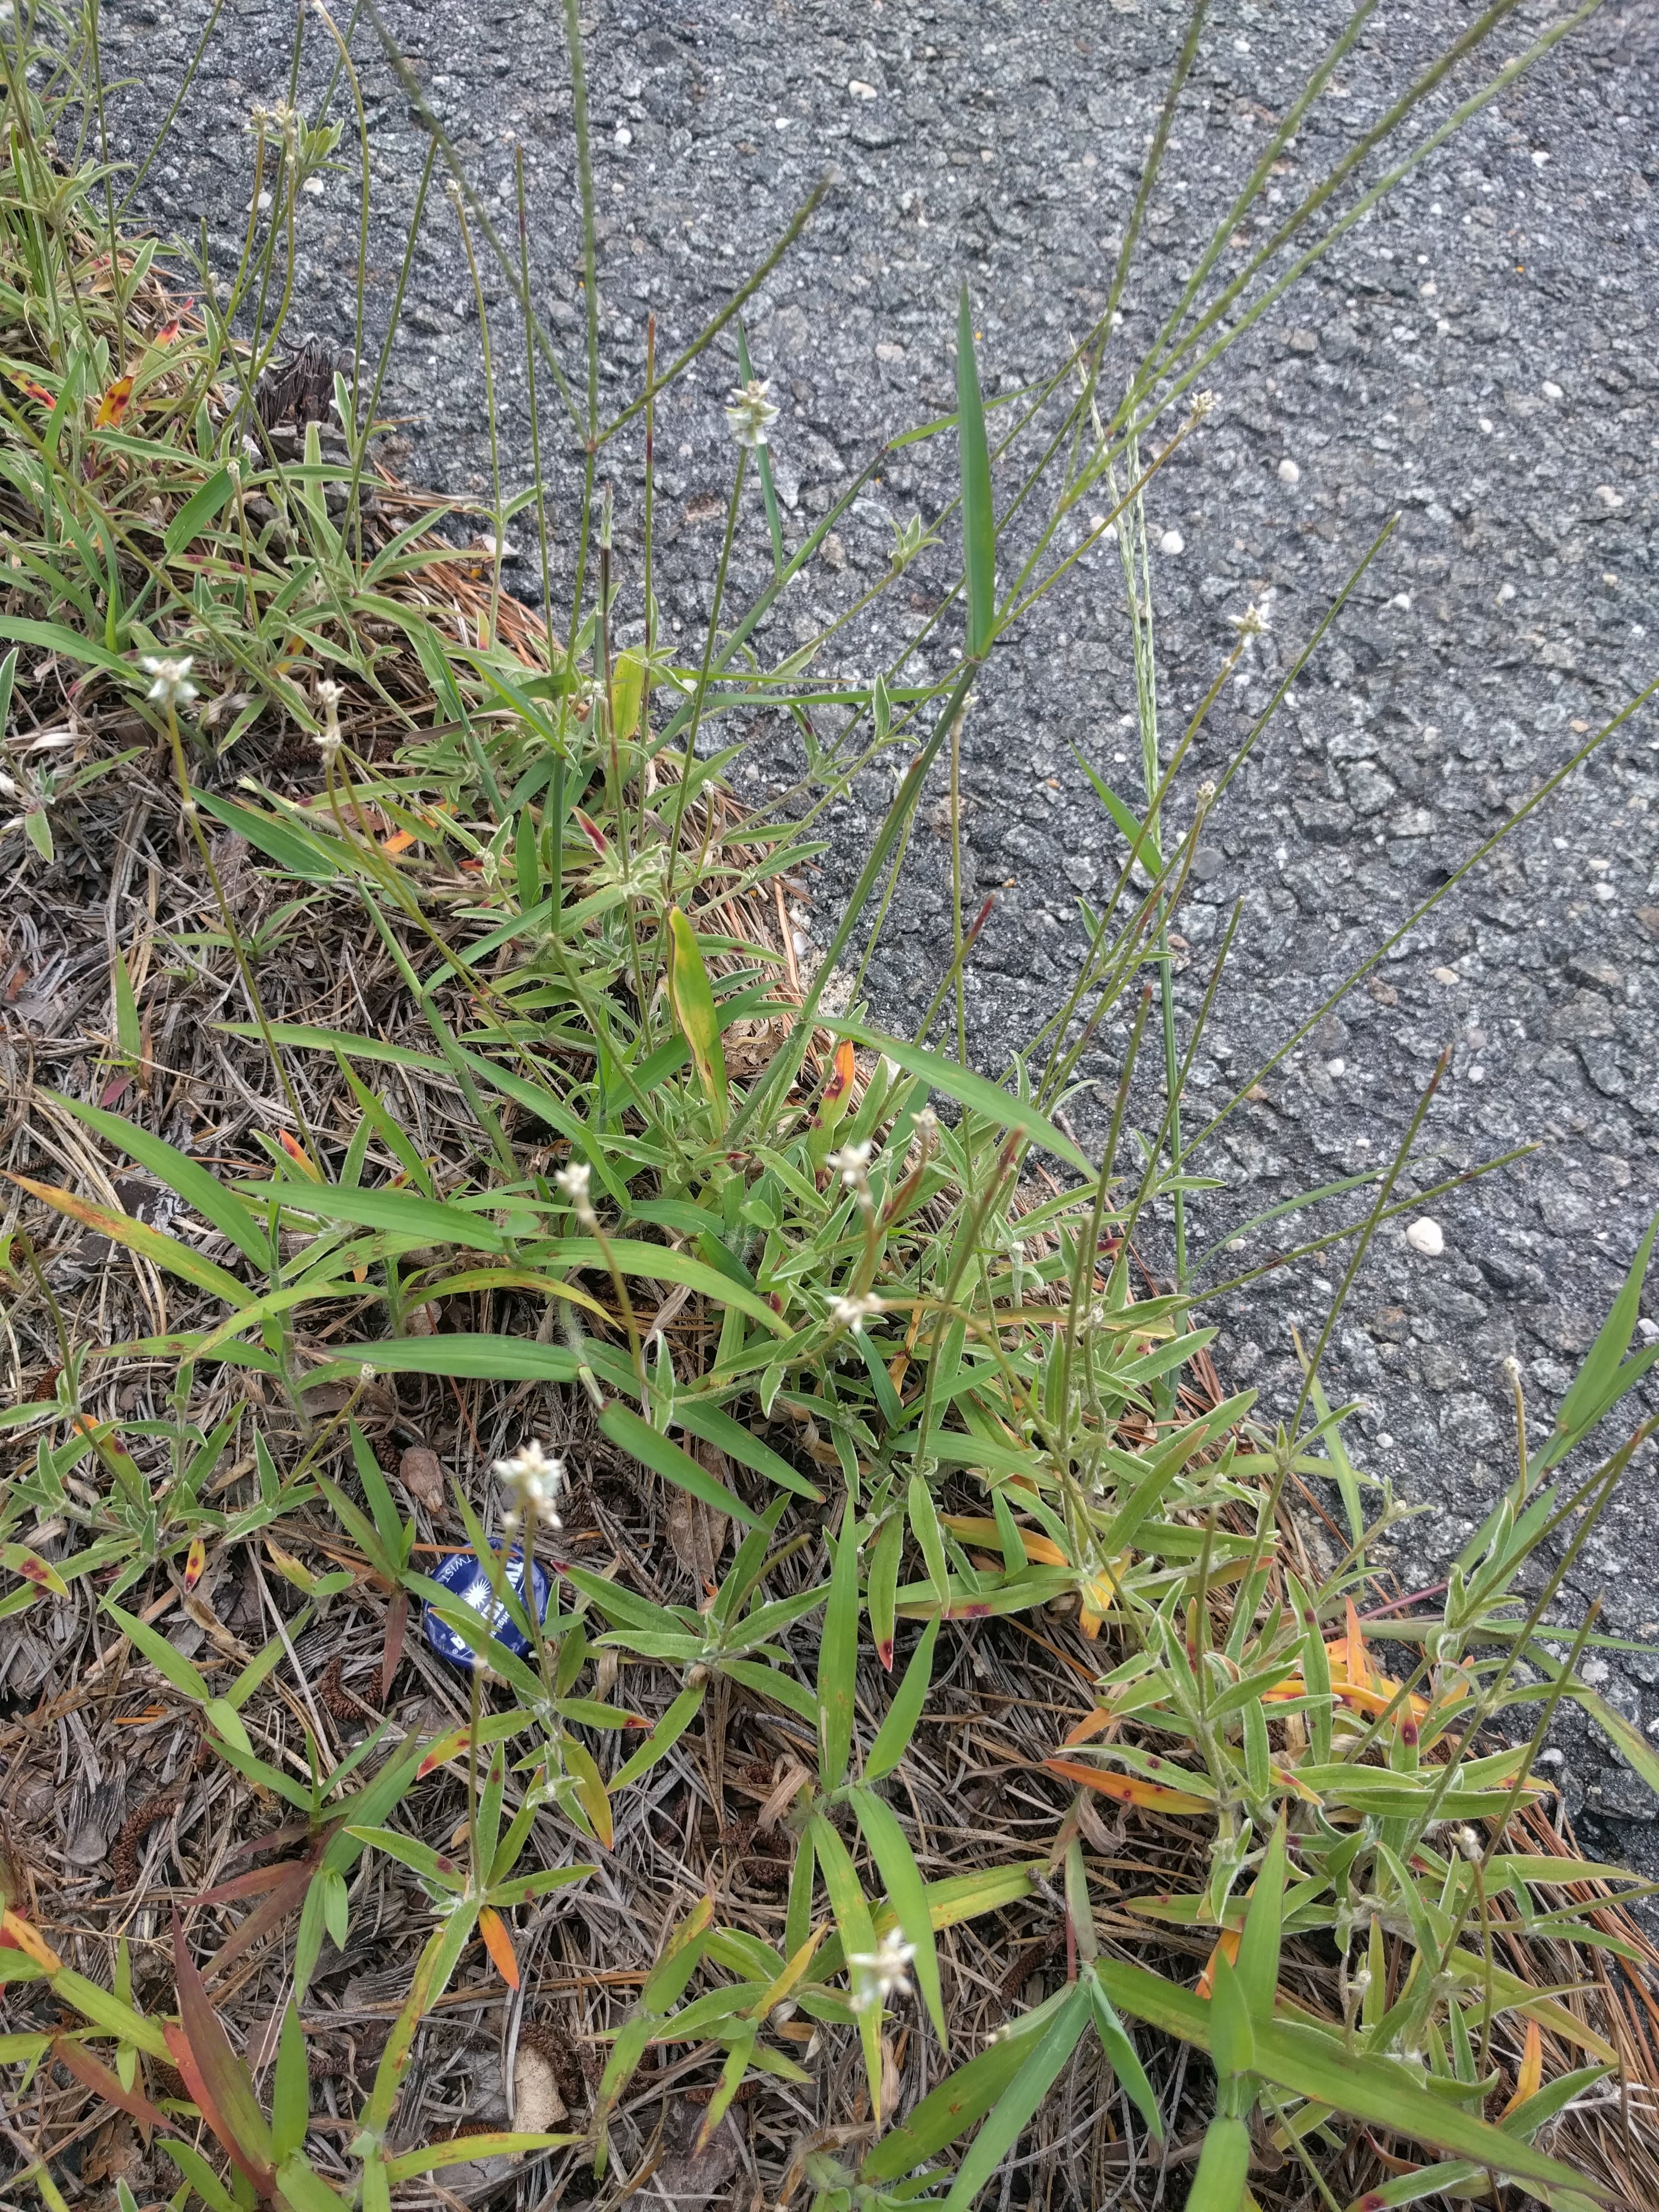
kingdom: Plantae
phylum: Tracheophyta
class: Magnoliopsida
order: Caryophyllales
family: Amaranthaceae
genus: Froelichia
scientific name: Froelichia gracilis
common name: Slender cottonweed
